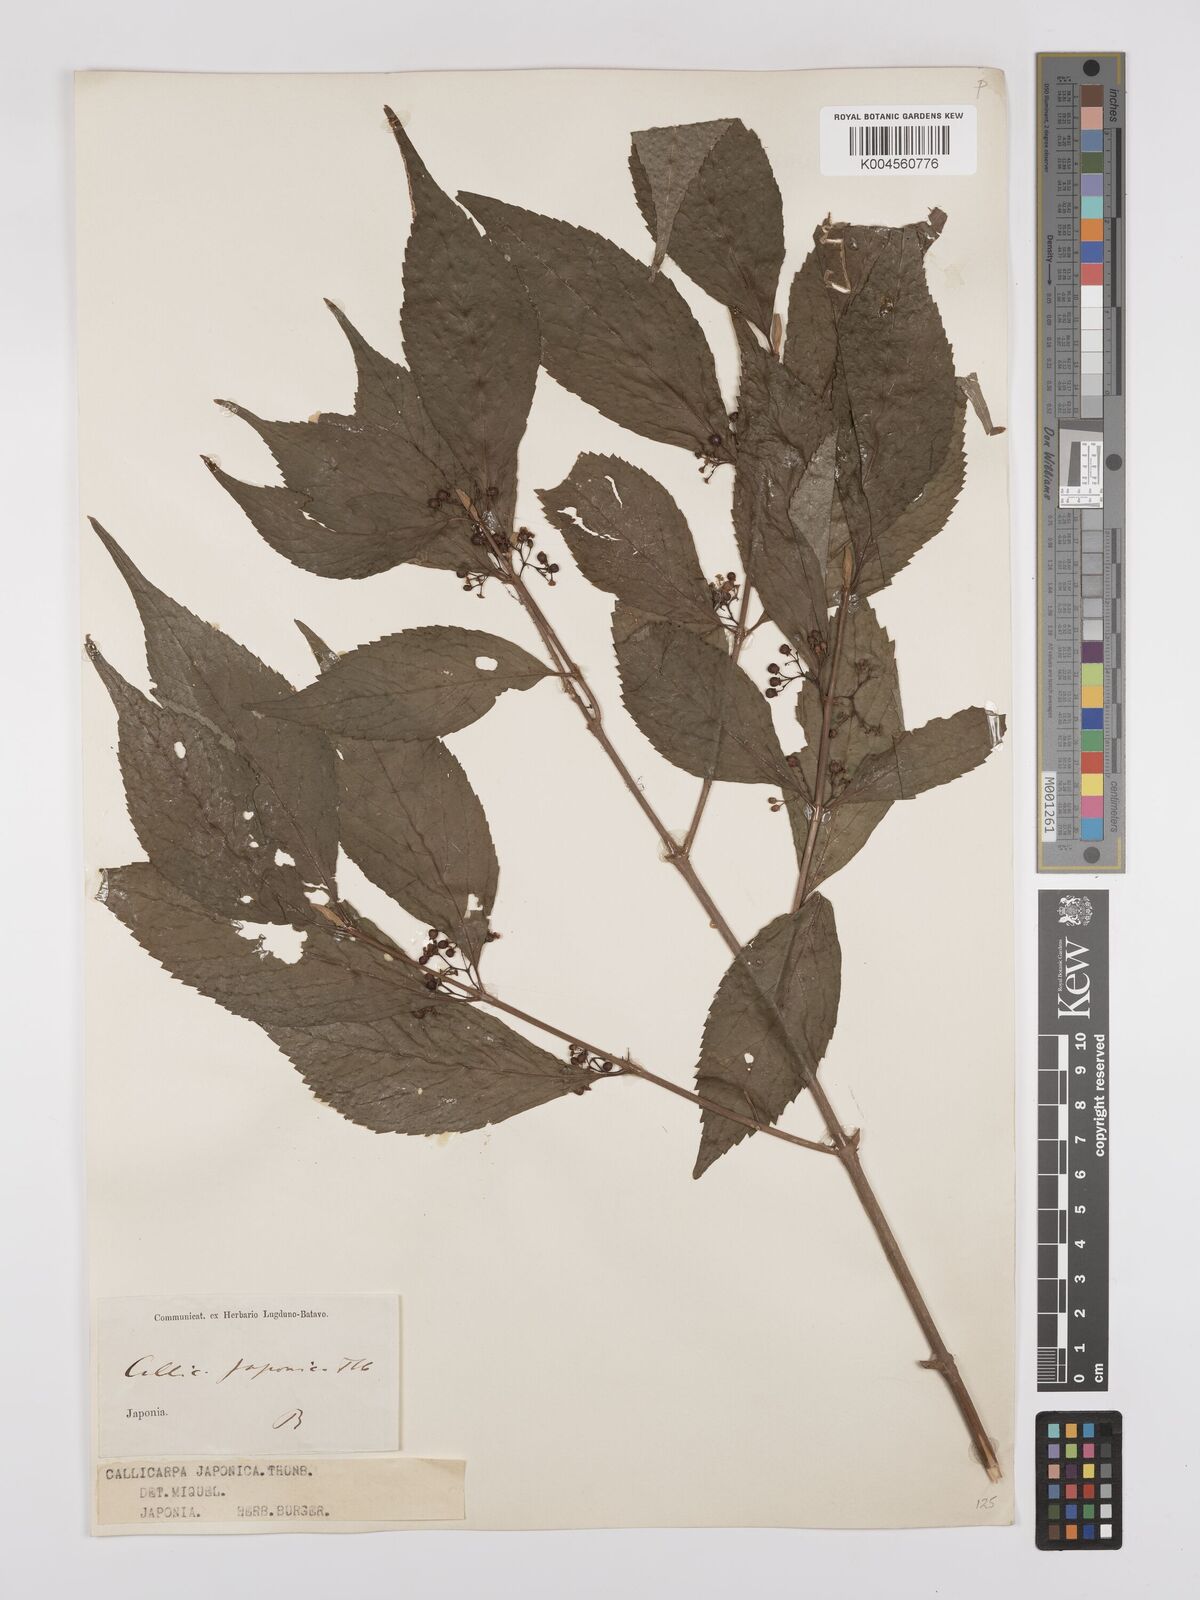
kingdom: Plantae
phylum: Tracheophyta
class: Magnoliopsida
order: Lamiales
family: Lamiaceae
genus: Callicarpa
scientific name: Callicarpa japonica
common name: Japanese beauty-berry
